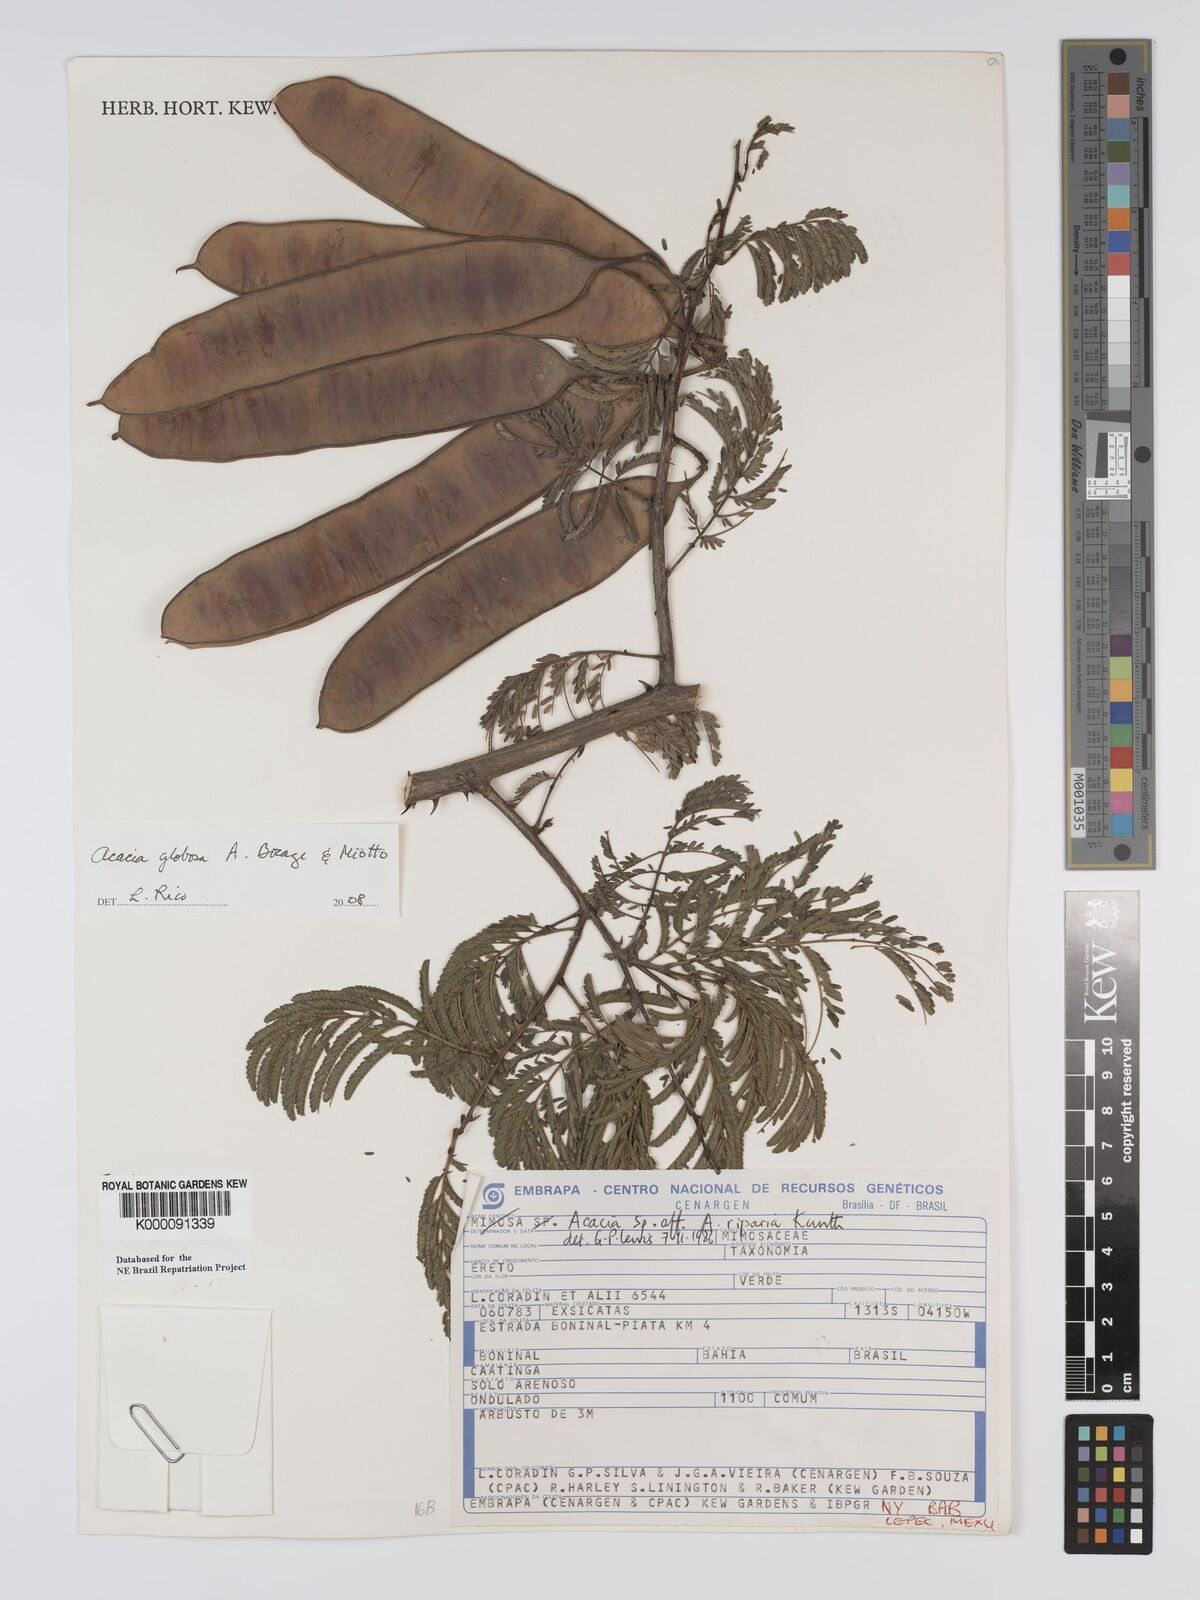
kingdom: Plantae
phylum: Tracheophyta
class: Magnoliopsida
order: Fabales
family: Fabaceae
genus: Senegalia
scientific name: Senegalia globosa
